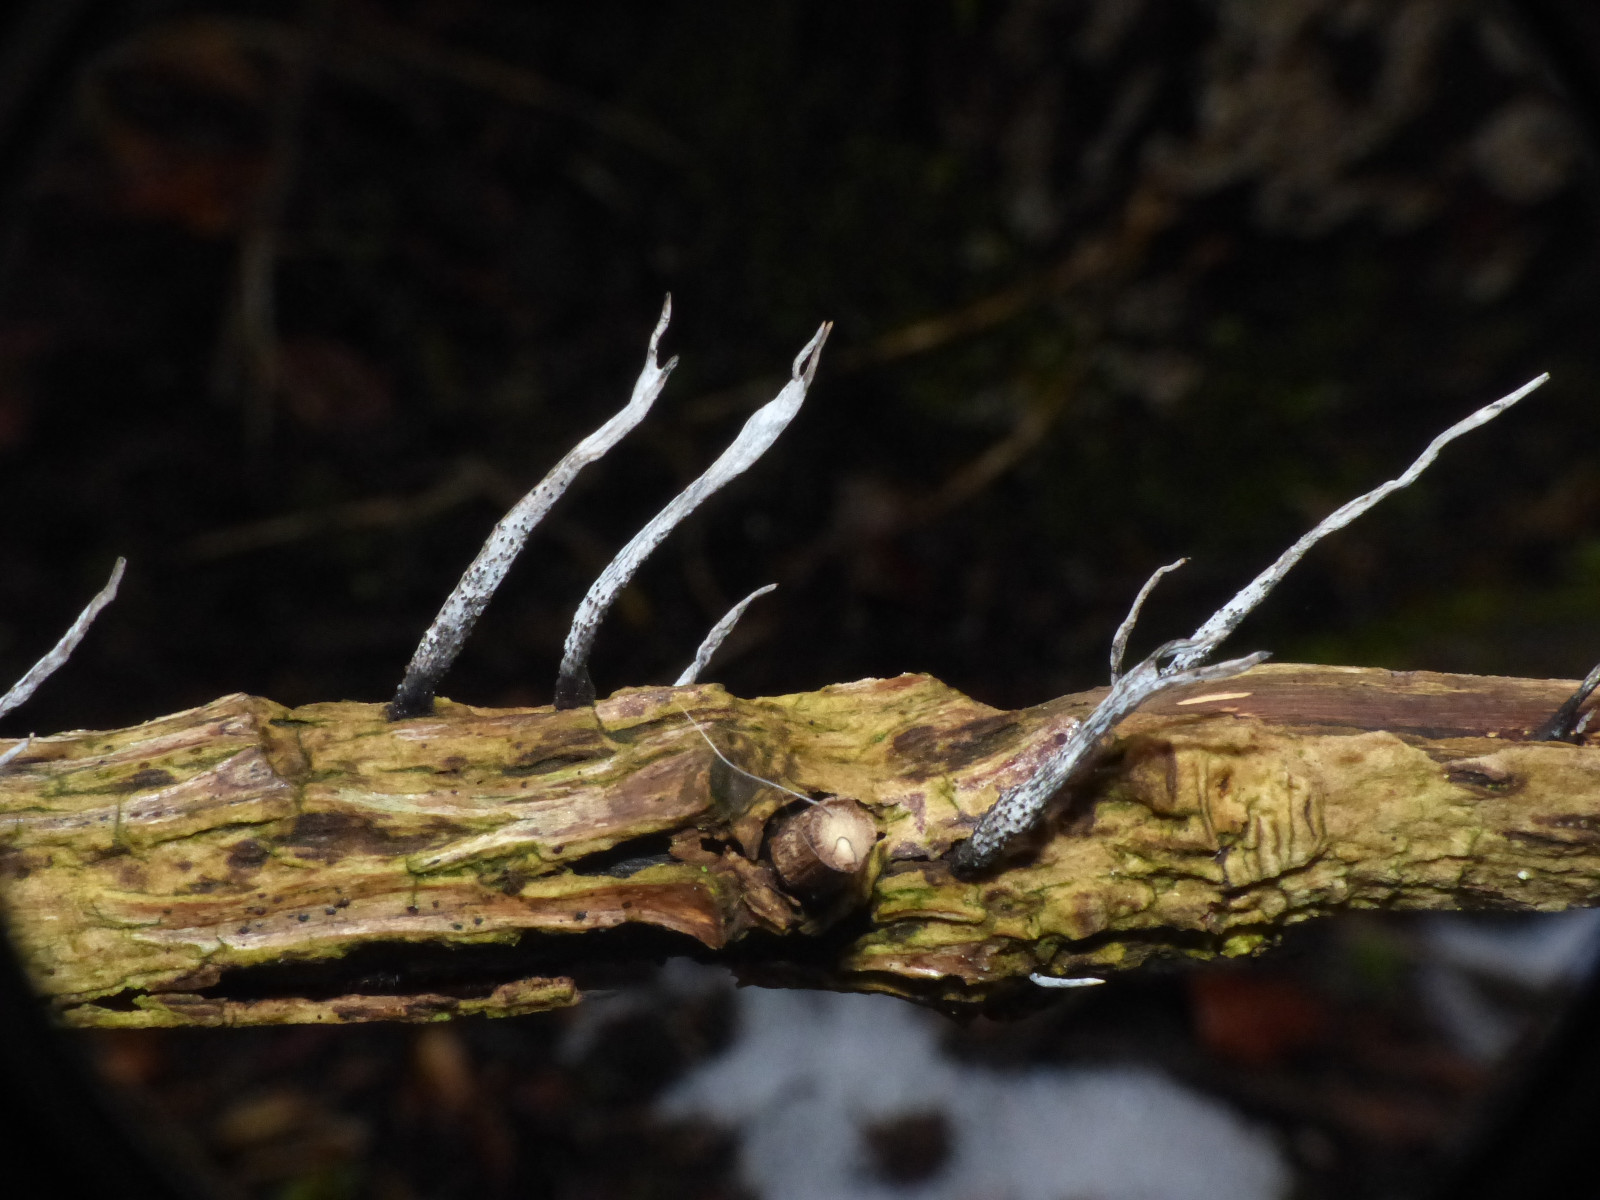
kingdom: Fungi
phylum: Ascomycota
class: Sordariomycetes
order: Xylariales
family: Xylariaceae
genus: Xylaria
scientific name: Xylaria hypoxylon
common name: grenet stødsvamp
